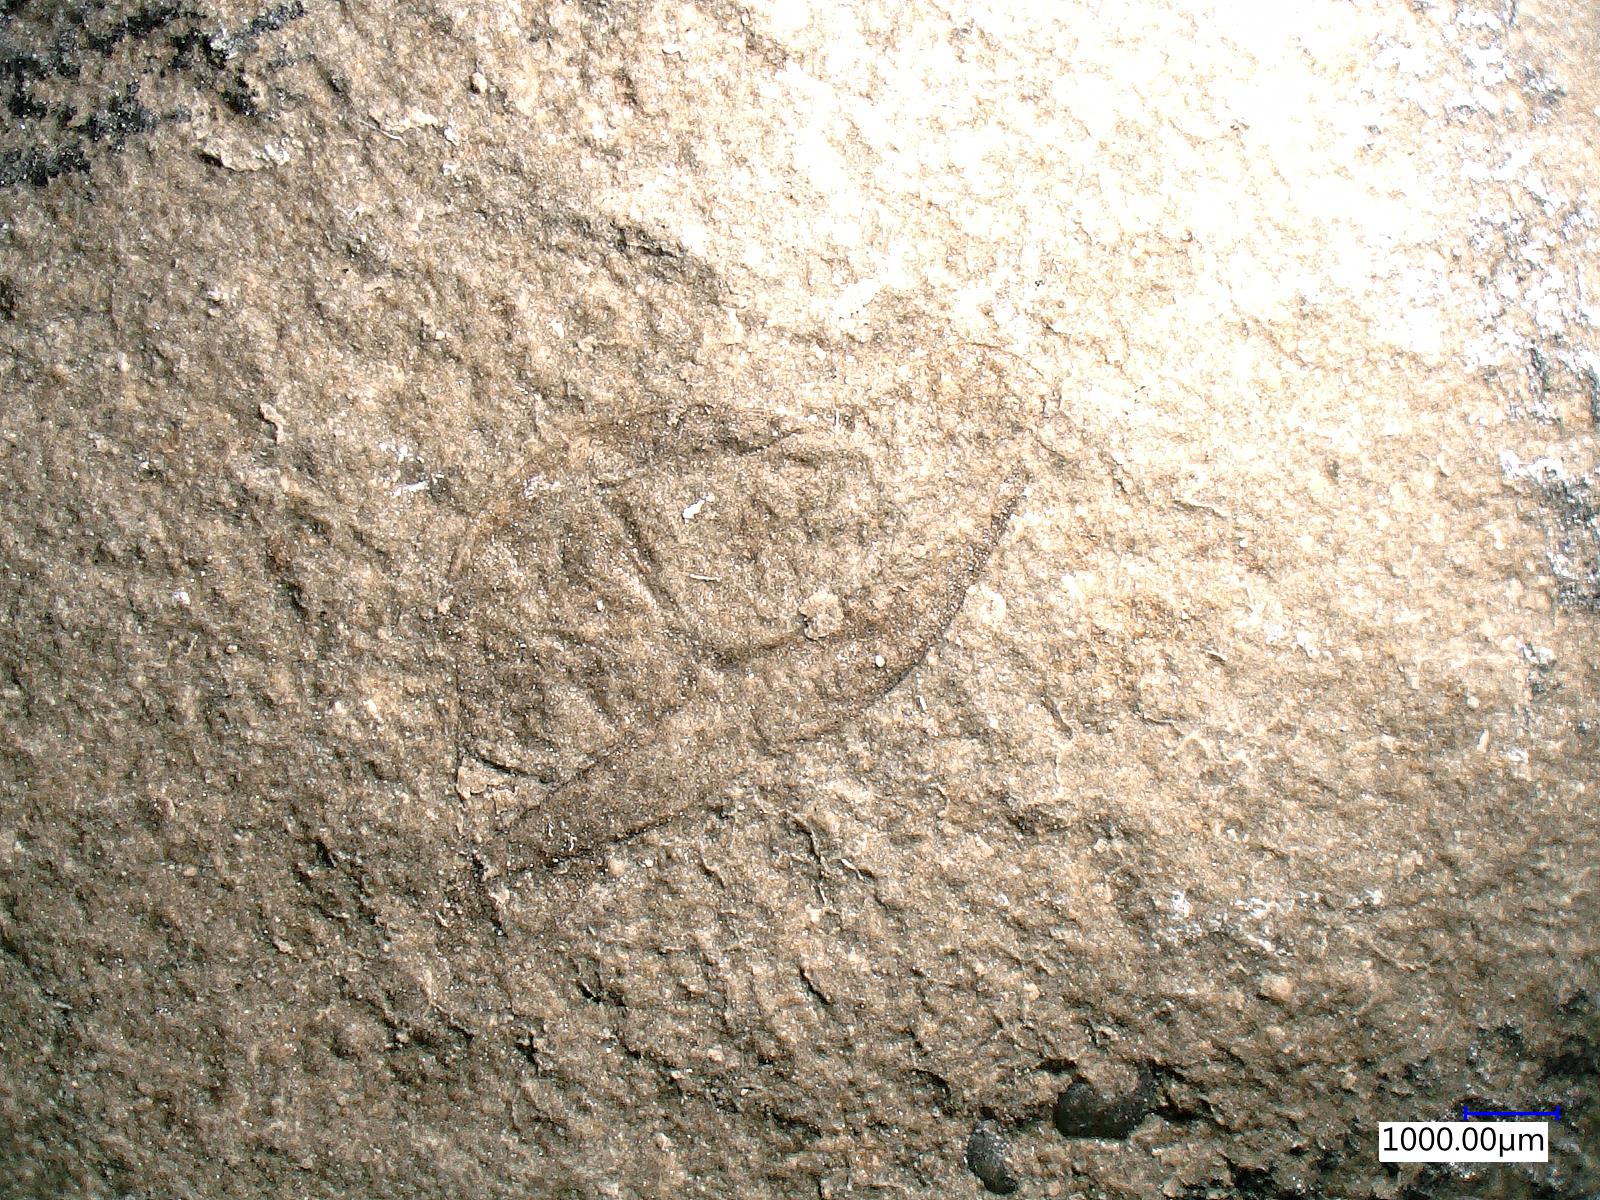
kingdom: Animalia
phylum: Arthropoda
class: Insecta
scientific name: Insecta
